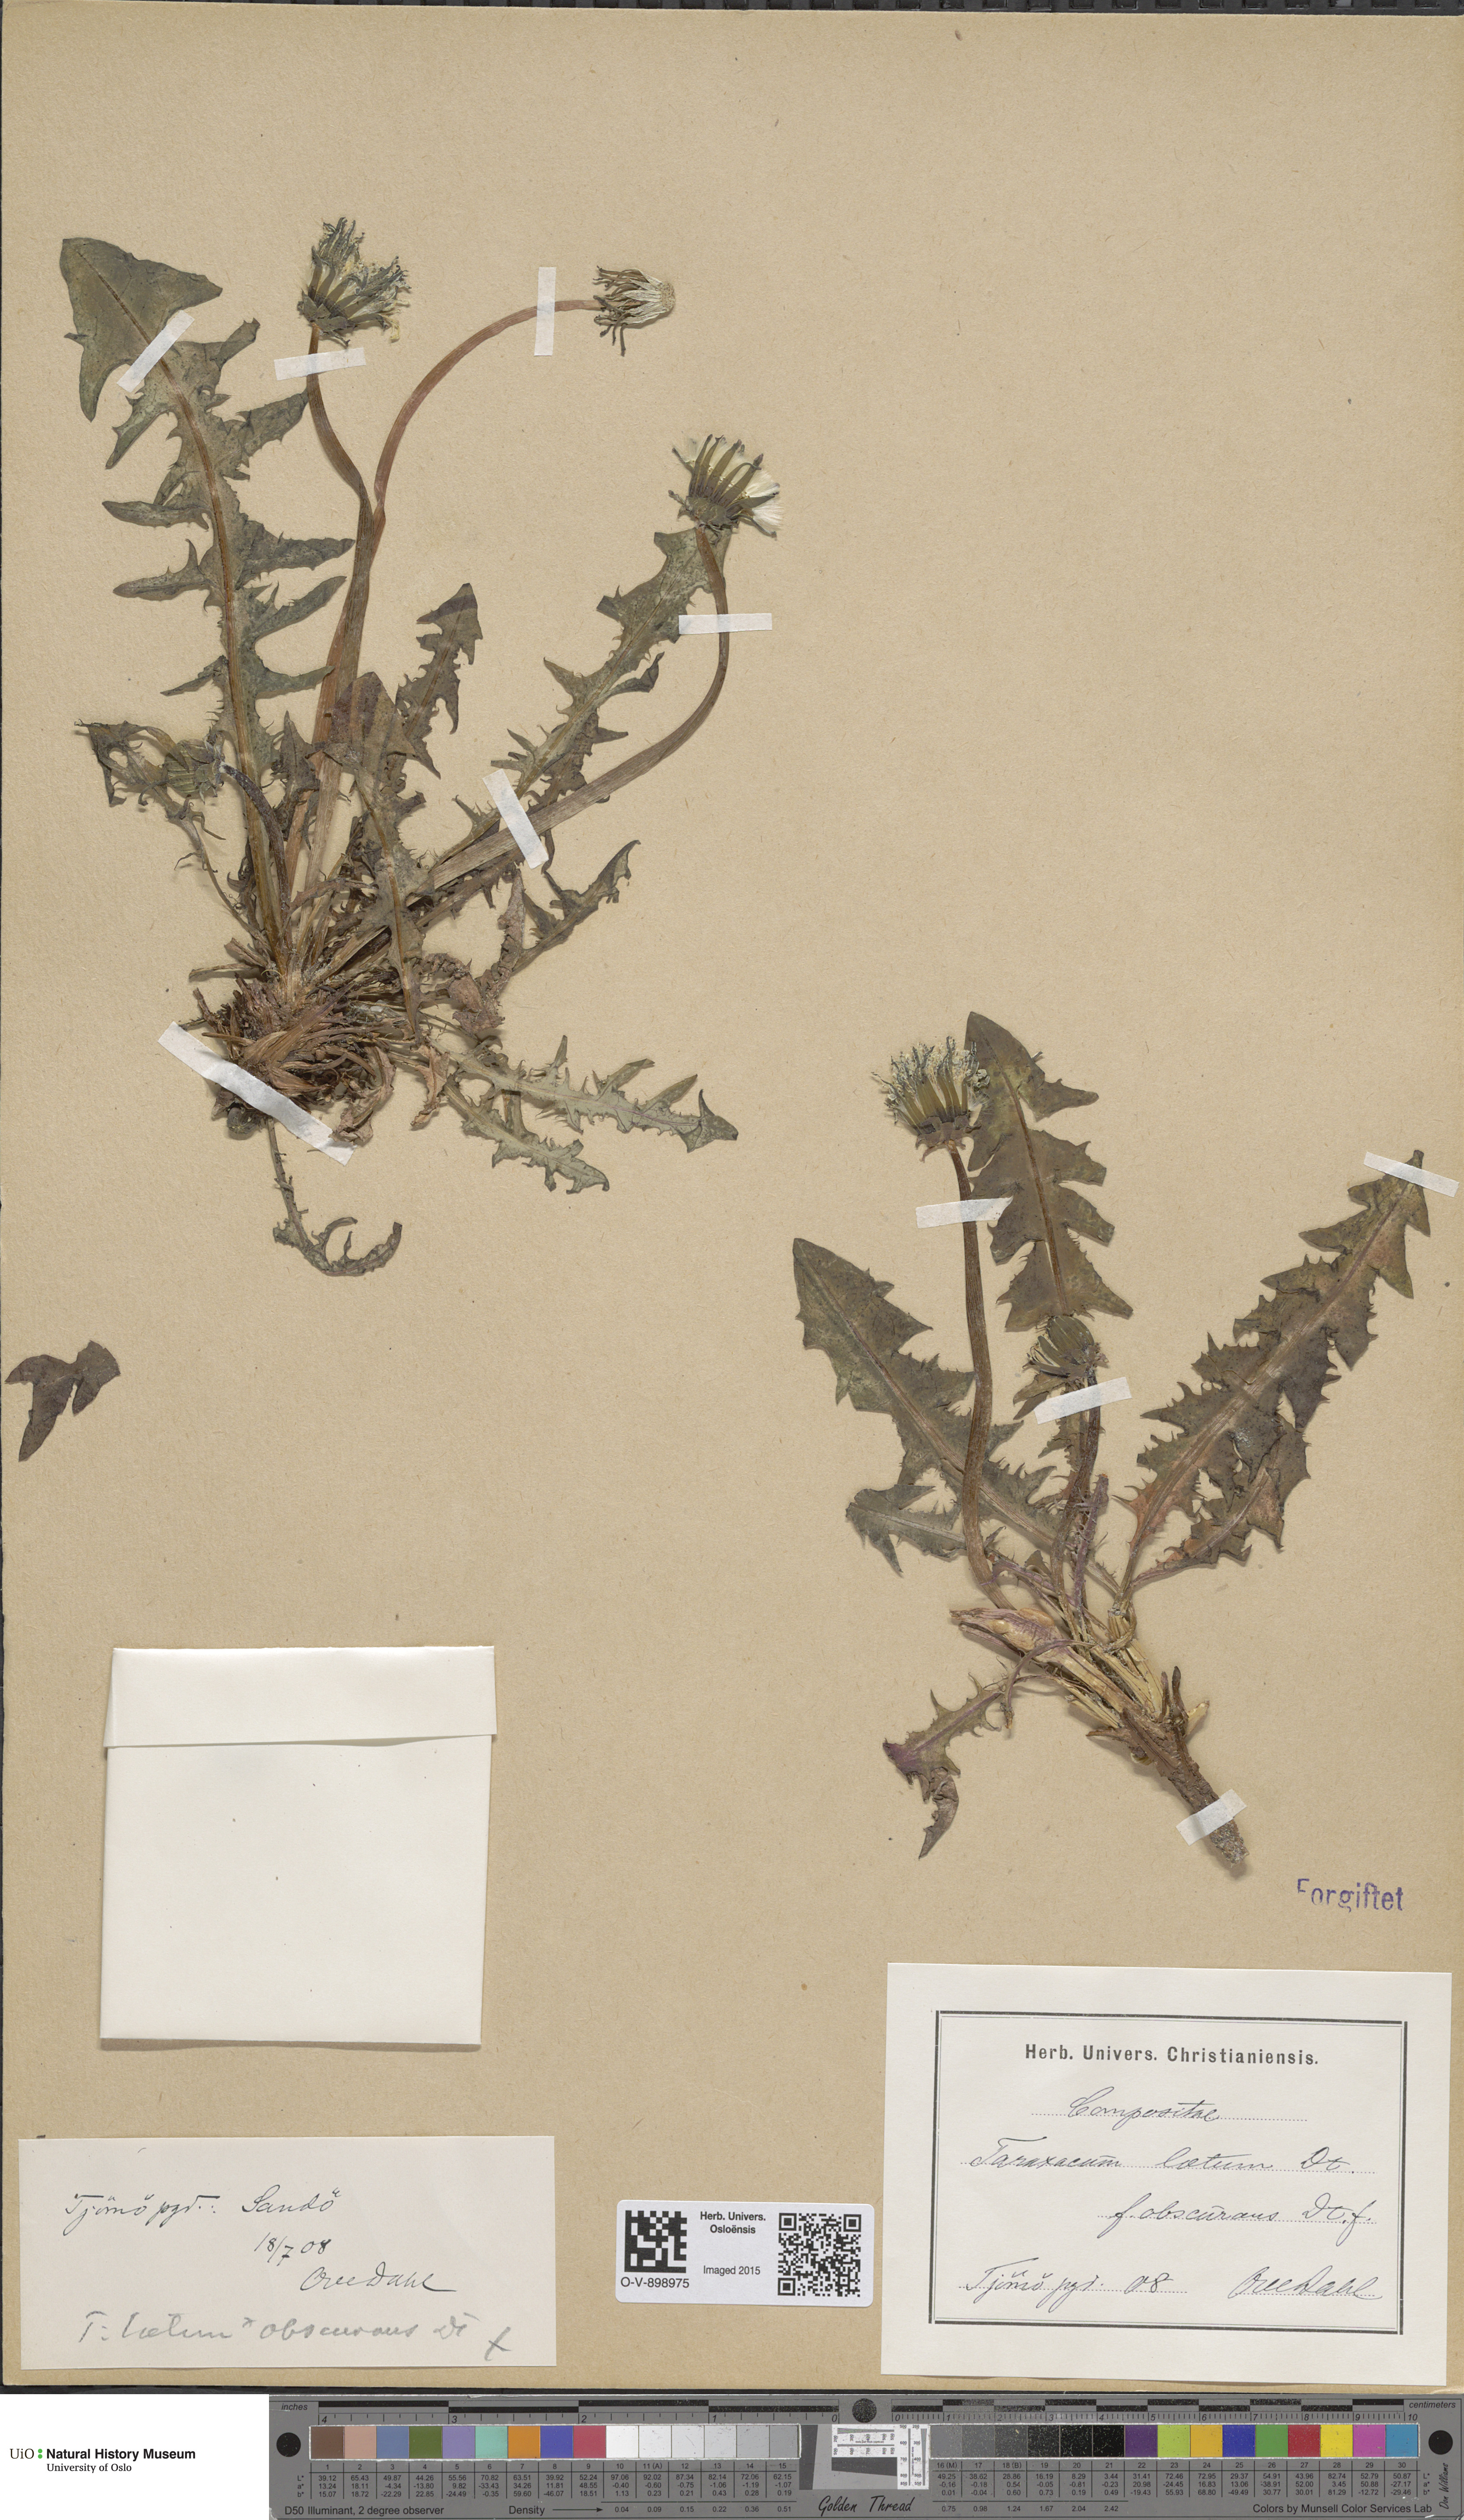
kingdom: Plantae
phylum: Tracheophyta
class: Magnoliopsida
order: Asterales
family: Asteraceae
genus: Taraxacum
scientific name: Taraxacum laetum
